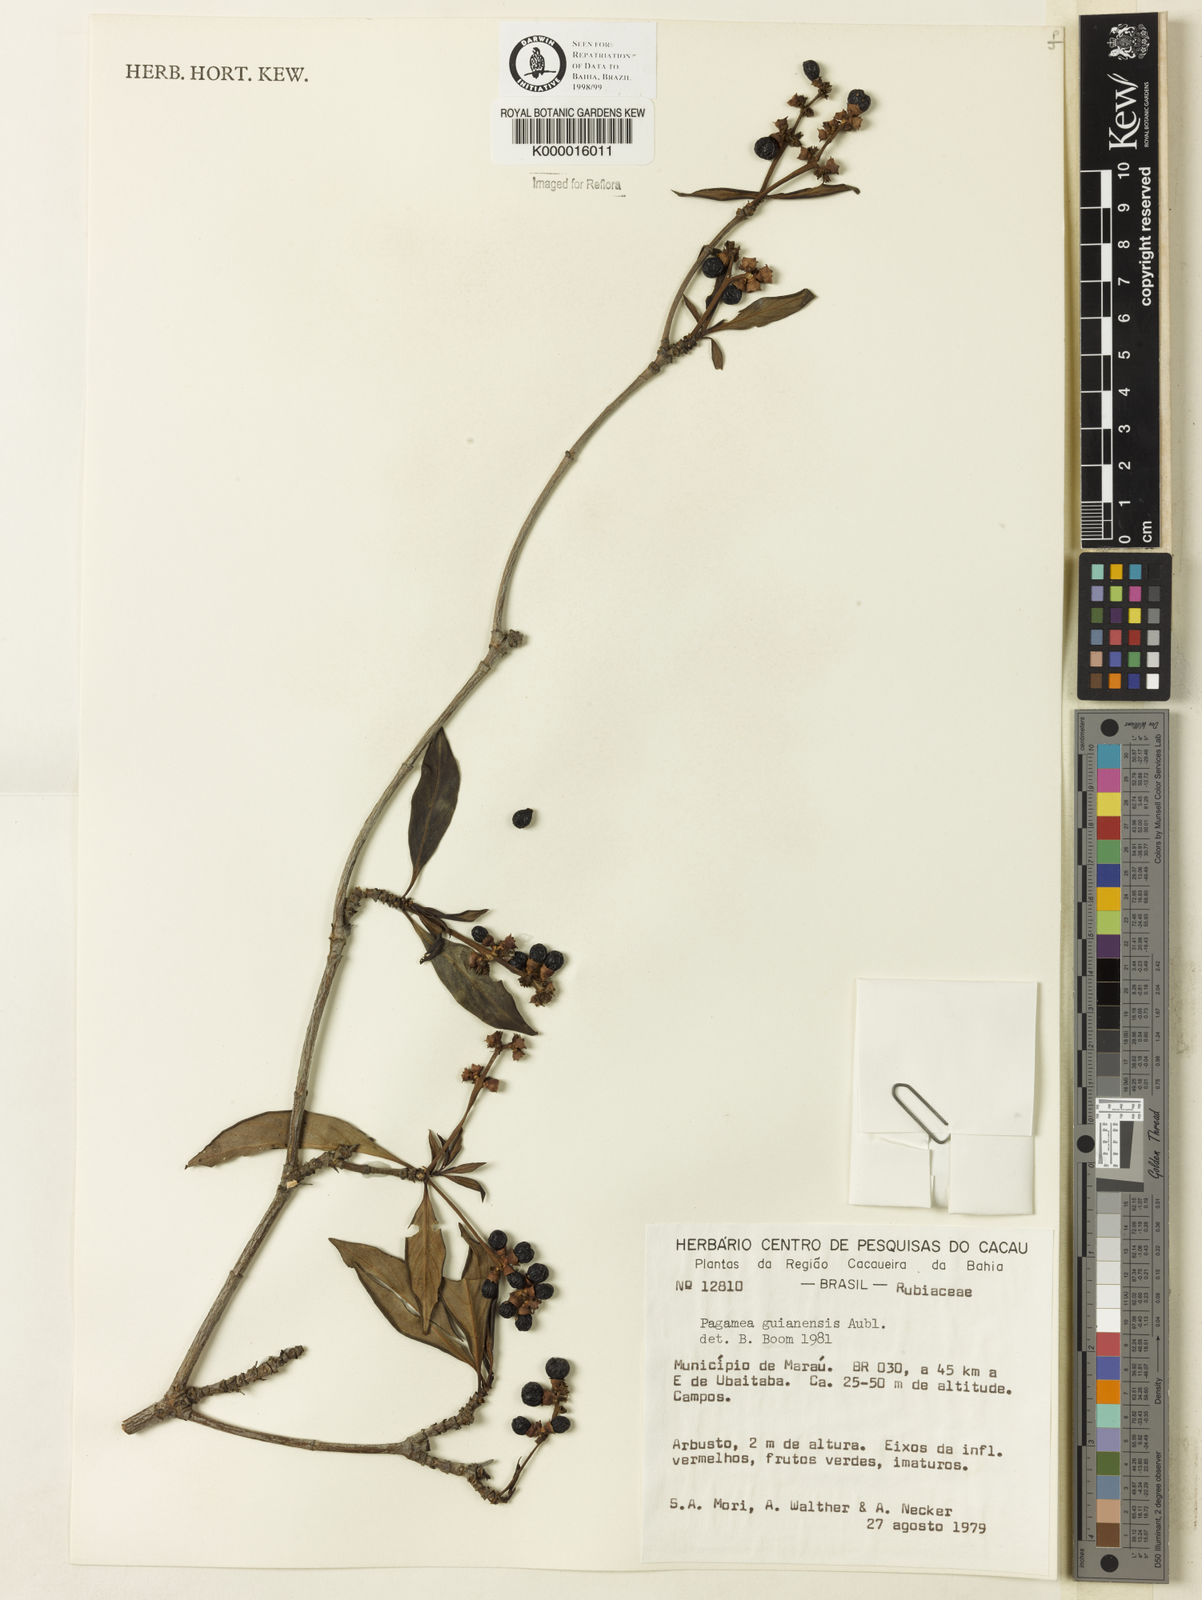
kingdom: Plantae
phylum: Tracheophyta
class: Magnoliopsida
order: Gentianales
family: Rubiaceae
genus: Pagamea
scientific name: Pagamea guianensis
